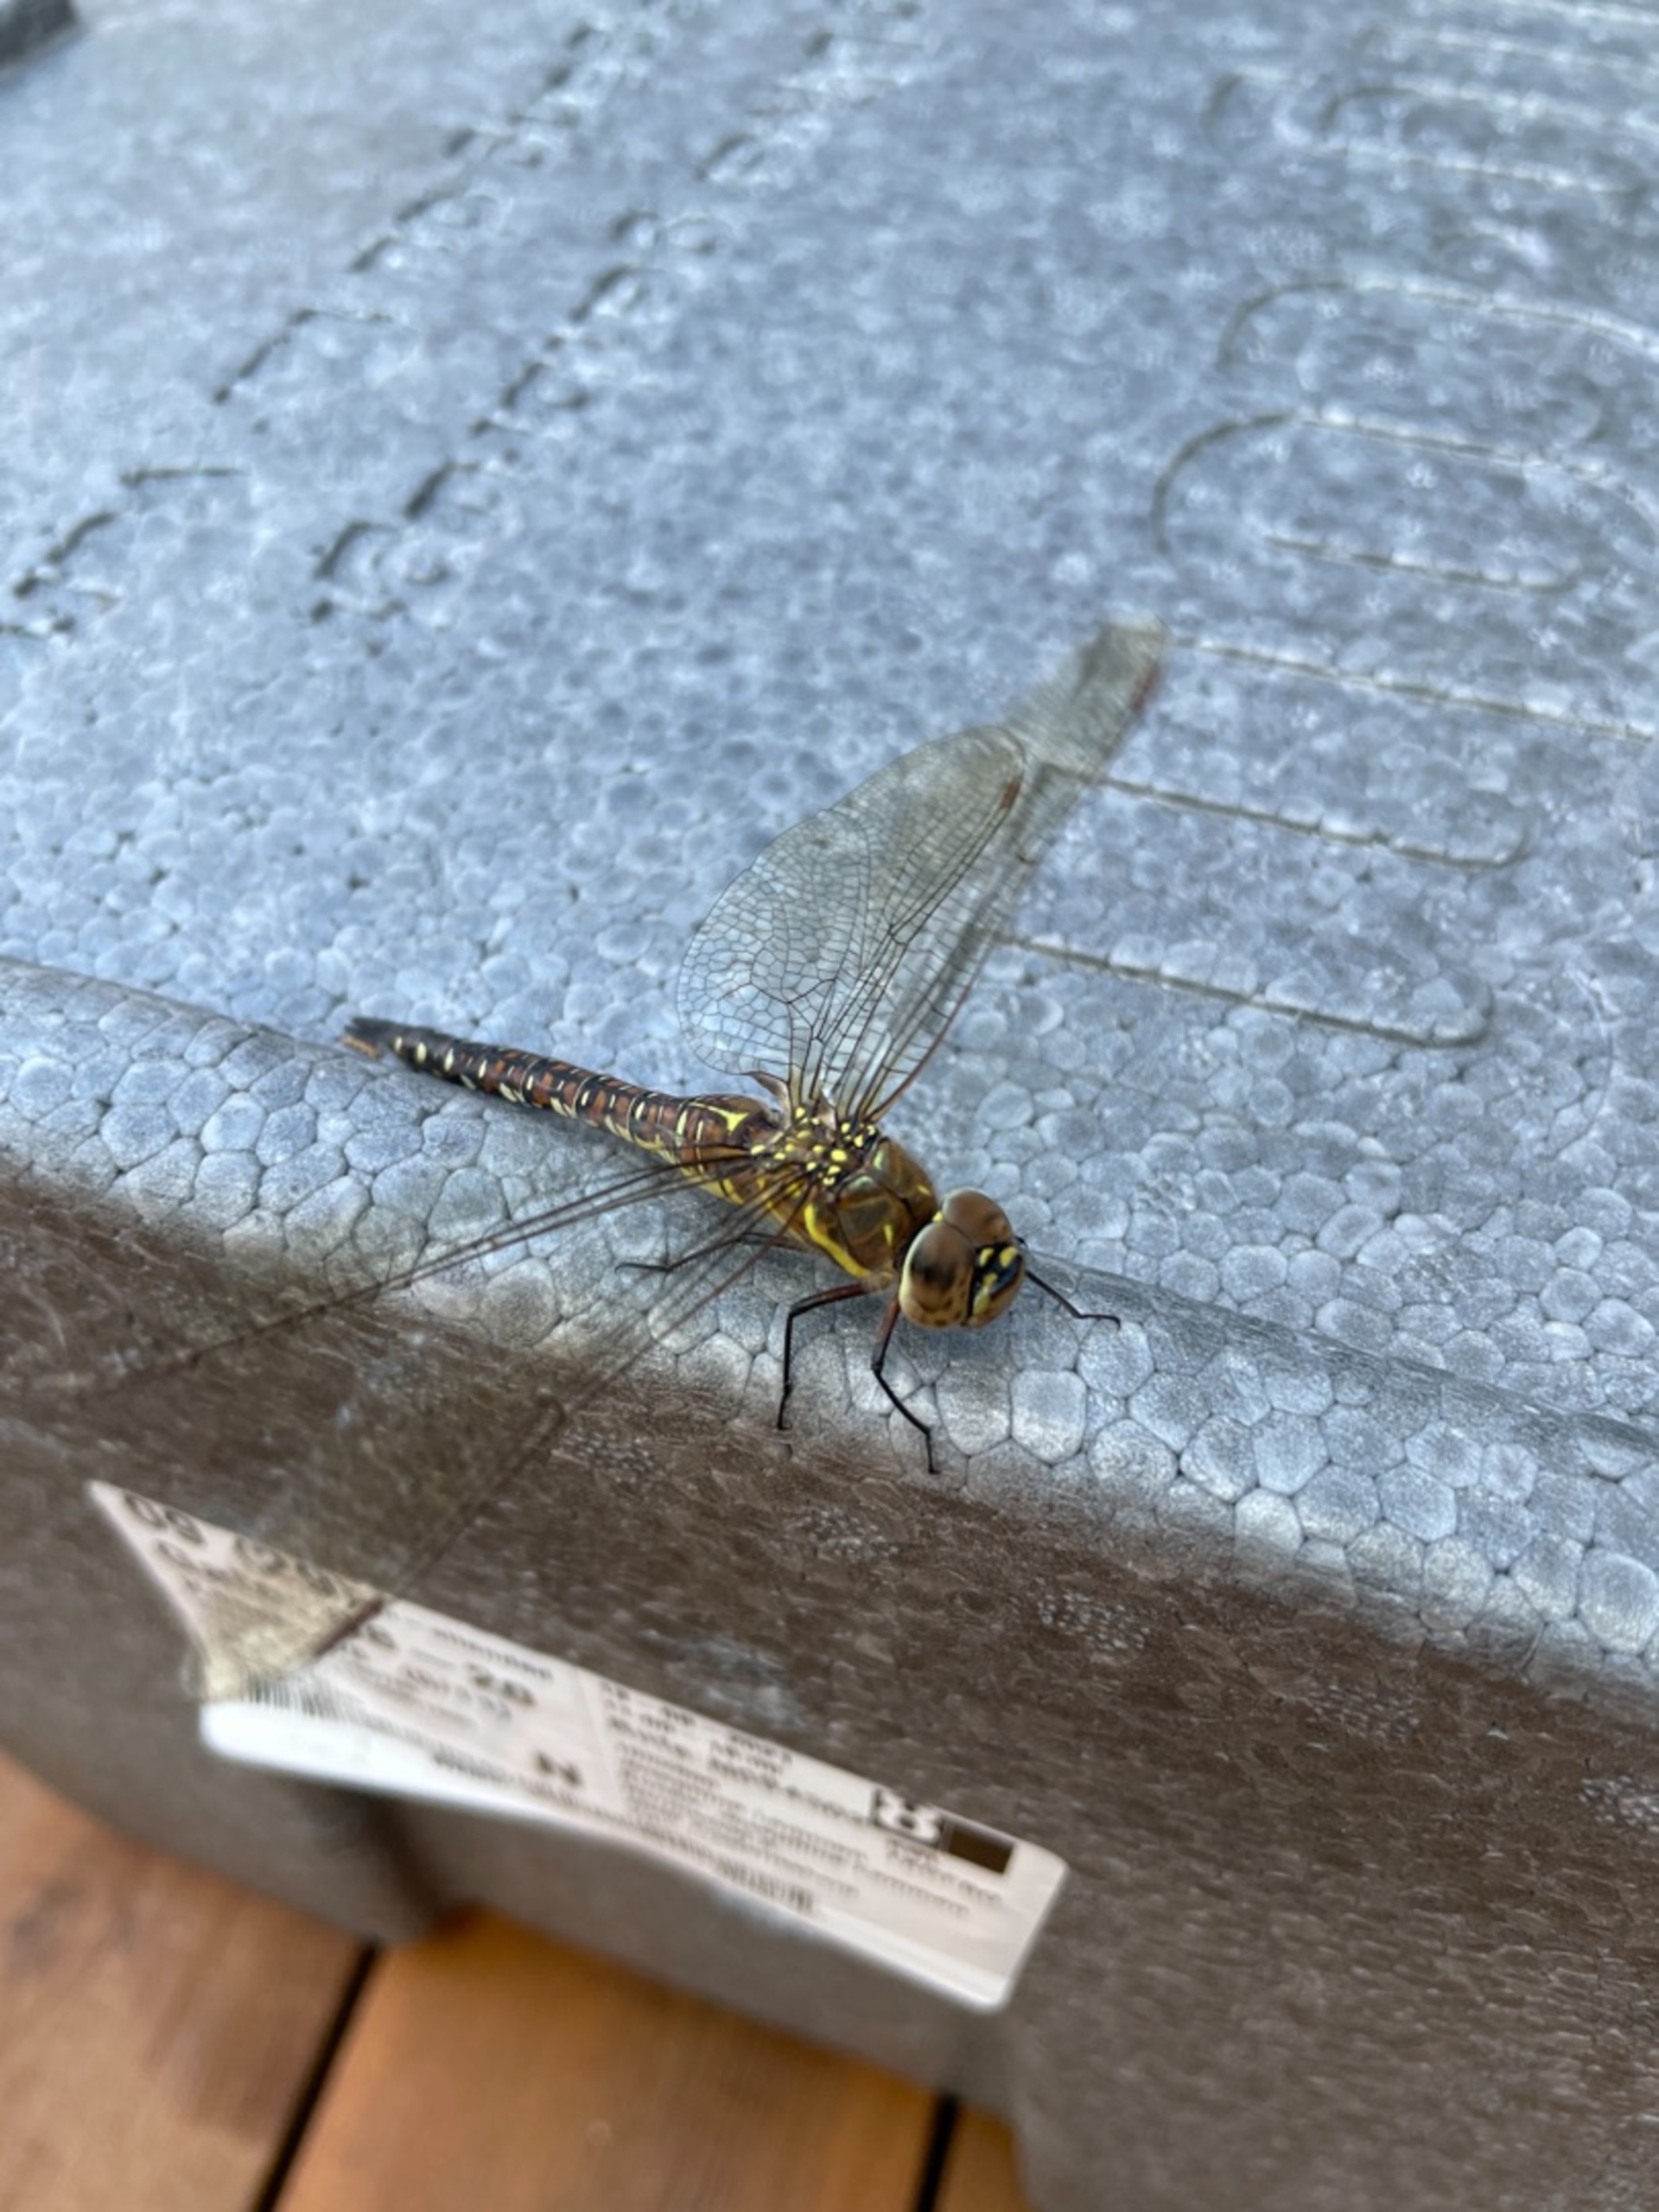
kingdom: Animalia
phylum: Arthropoda
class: Insecta
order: Odonata
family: Aeshnidae
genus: Aeshna
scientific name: Aeshna mixta
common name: Efterårs-mosaikguldsmed
